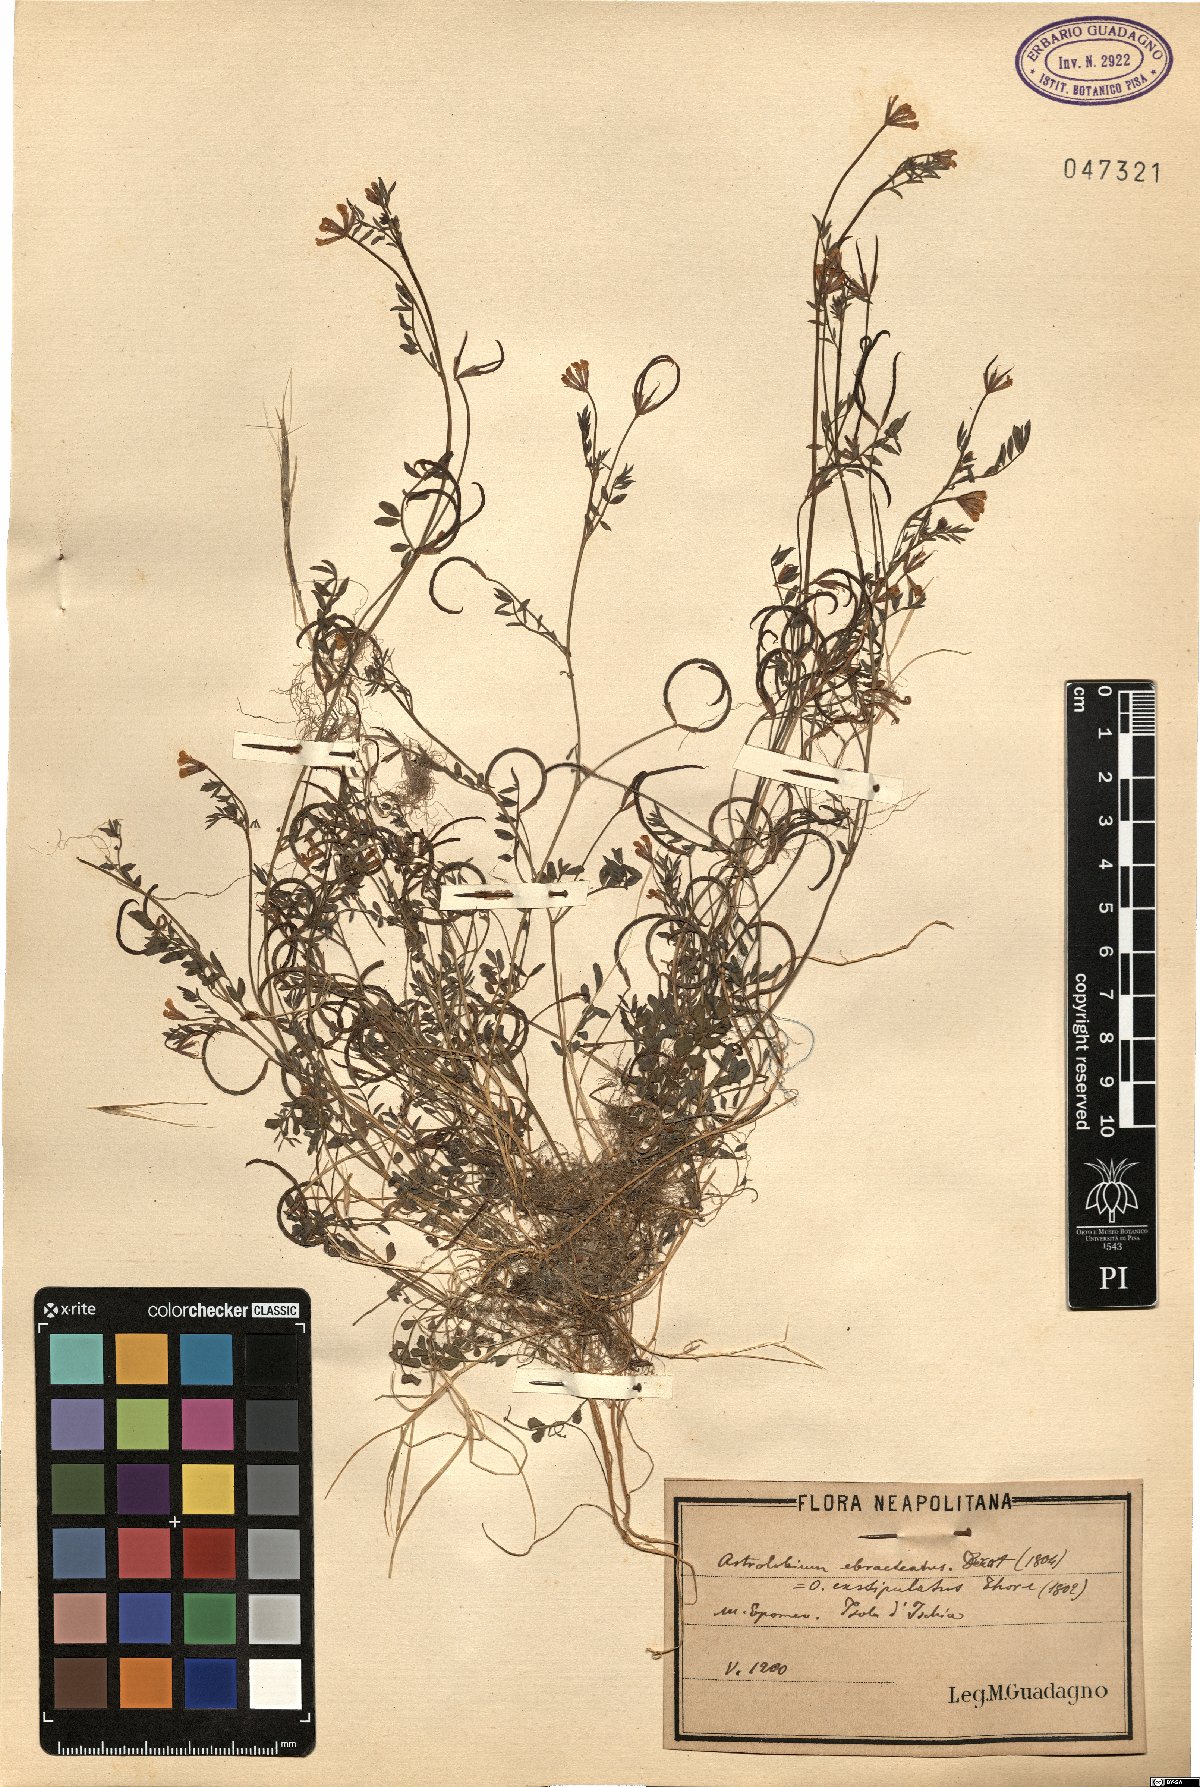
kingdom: Plantae
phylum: Tracheophyta
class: Magnoliopsida
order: Fabales
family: Fabaceae
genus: Ornithopus
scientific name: Ornithopus pinnatus
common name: Orange bird's-foot
